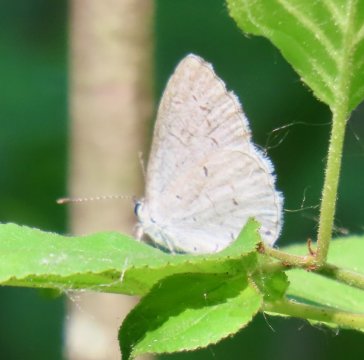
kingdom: Animalia
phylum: Arthropoda
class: Insecta
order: Lepidoptera
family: Lycaenidae
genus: Cyaniris
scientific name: Cyaniris neglecta
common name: Summer Azure
